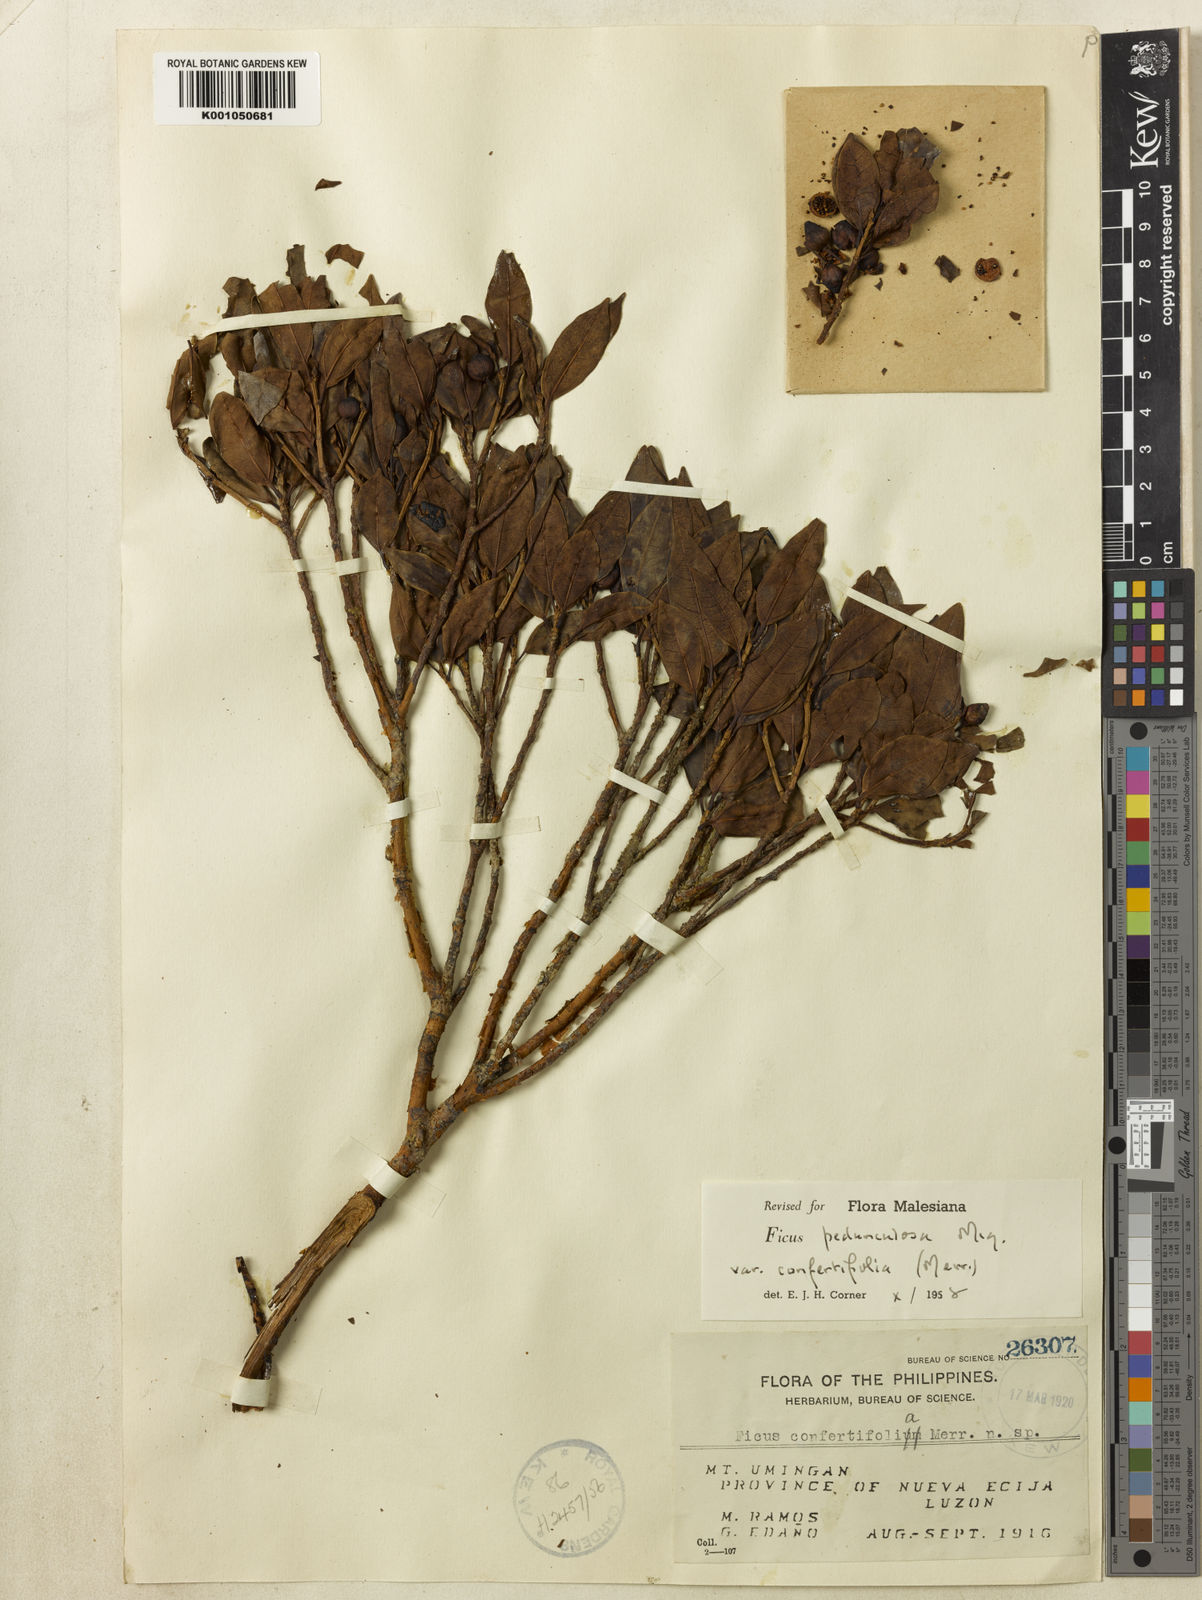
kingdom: Plantae
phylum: Tracheophyta
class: Magnoliopsida
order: Rosales
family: Moraceae
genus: Ficus
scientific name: Ficus pedunculosa
